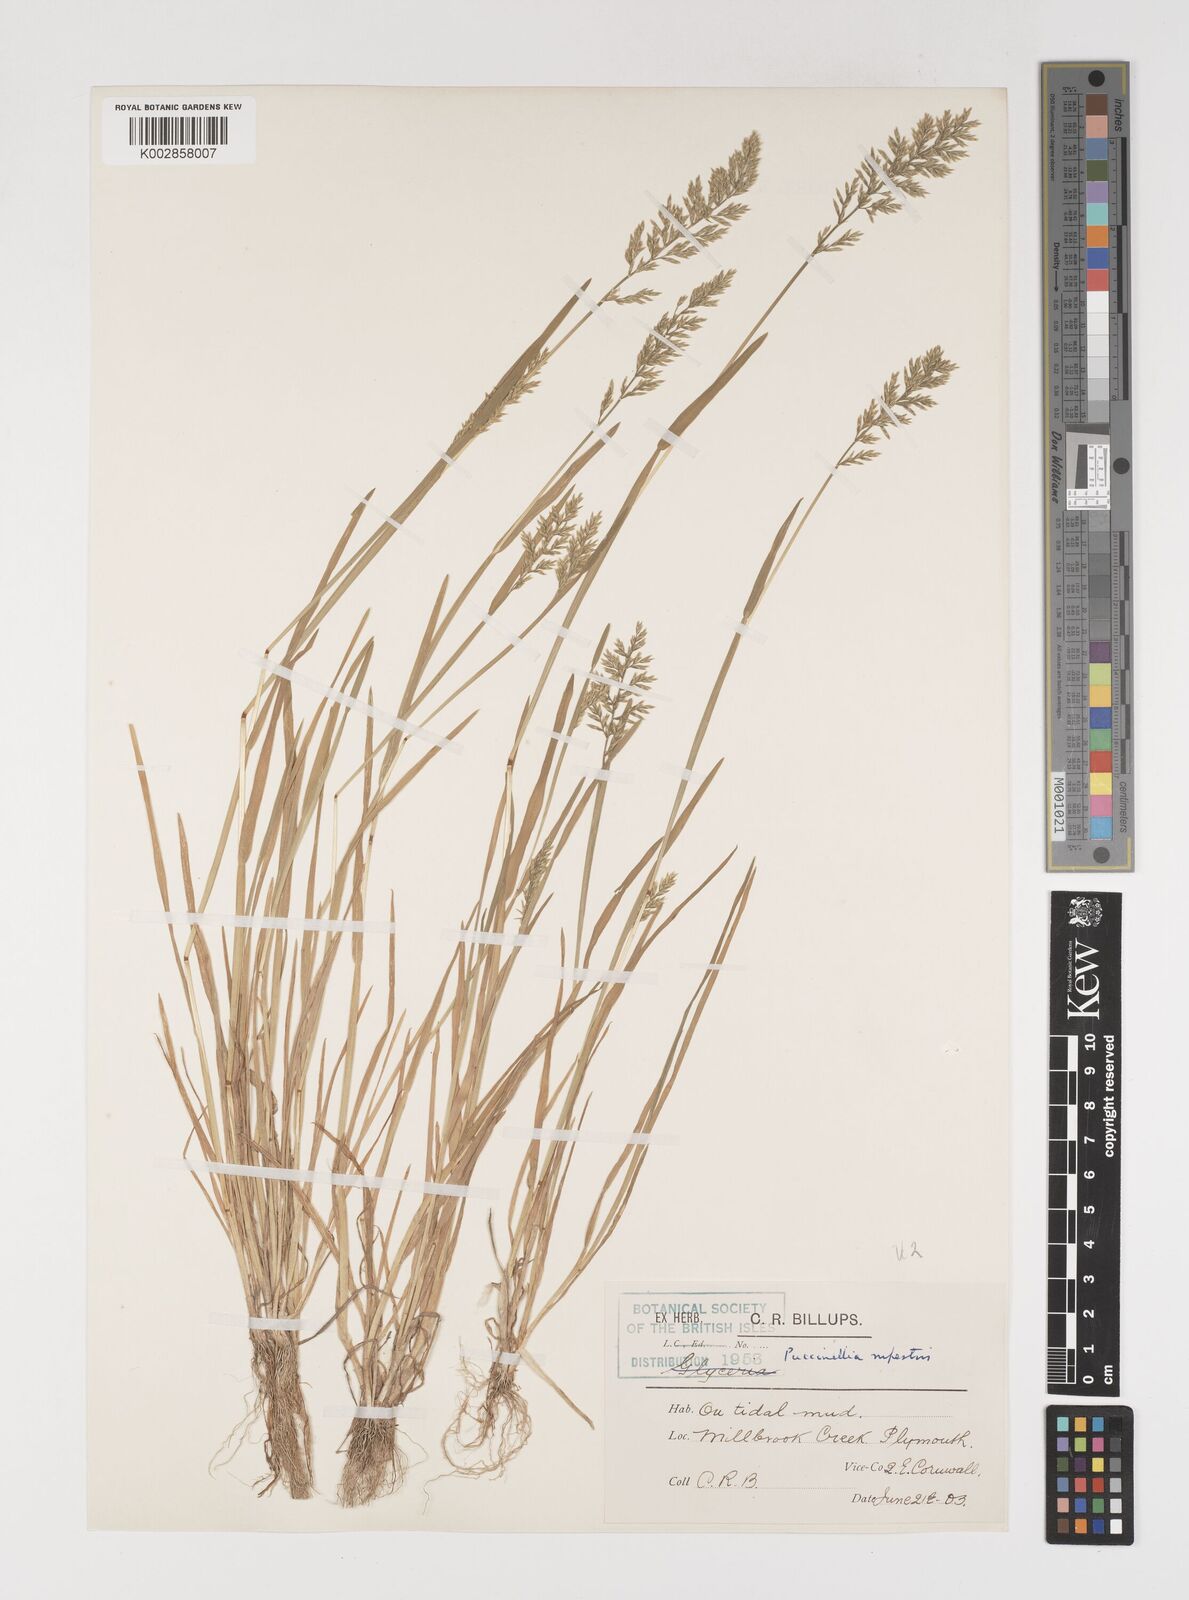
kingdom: Plantae
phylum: Tracheophyta
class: Liliopsida
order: Poales
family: Poaceae
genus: Puccinellia
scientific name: Puccinellia rupestris
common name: Stiff saltmarsh-grass
